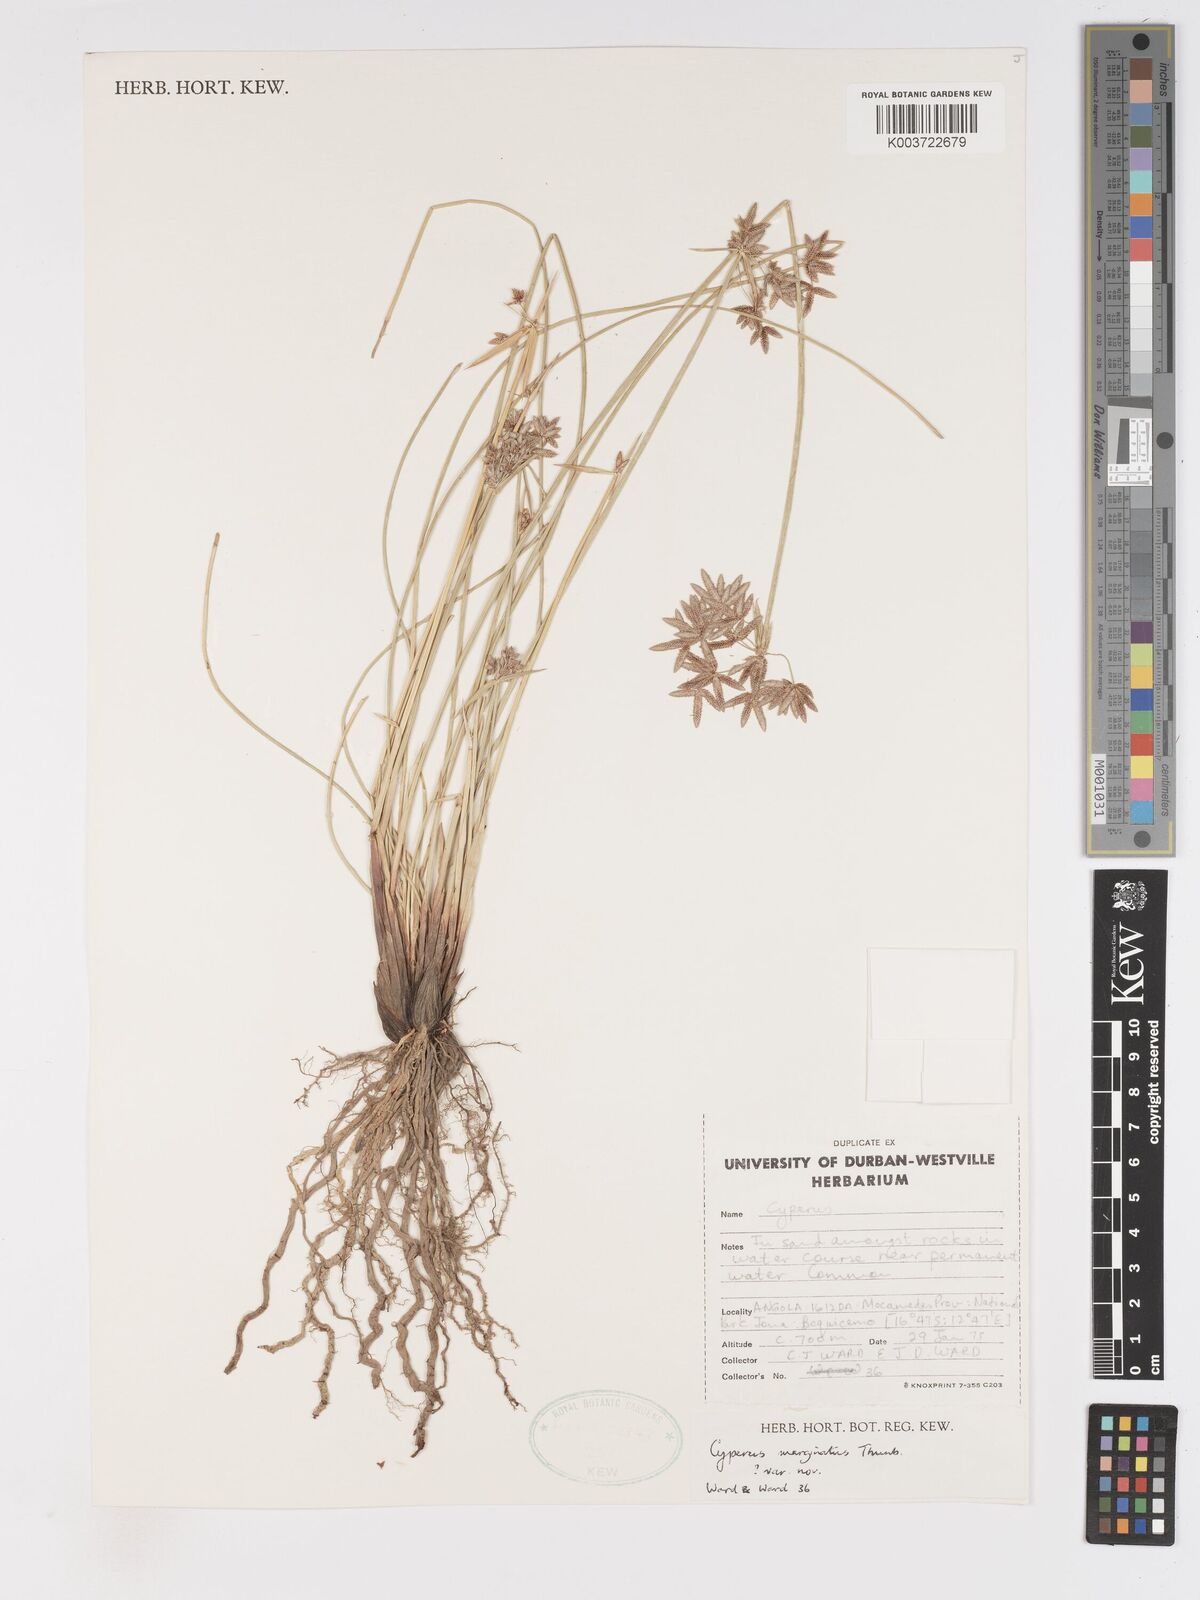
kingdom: Plantae
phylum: Tracheophyta
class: Liliopsida
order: Poales
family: Cyperaceae
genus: Cyperus
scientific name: Cyperus marginatus
